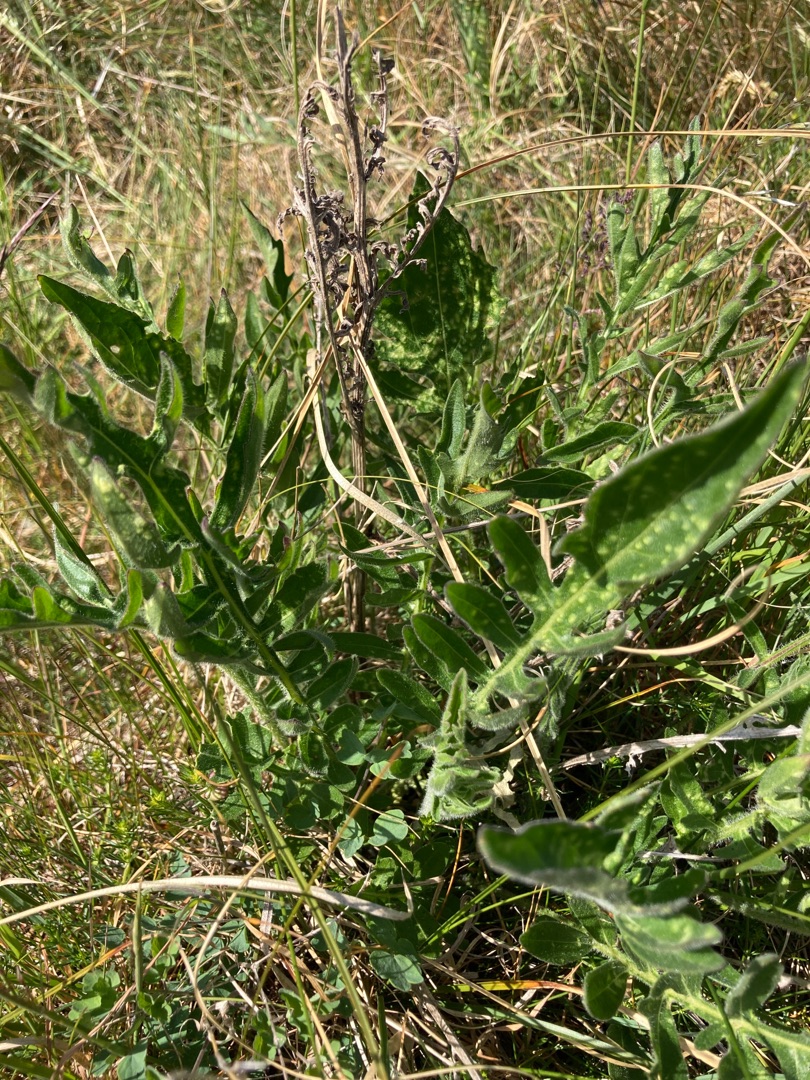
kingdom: Plantae
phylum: Tracheophyta
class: Magnoliopsida
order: Asterales
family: Asteraceae
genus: Centaurea
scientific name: Centaurea scabiosa
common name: Stor knopurt
